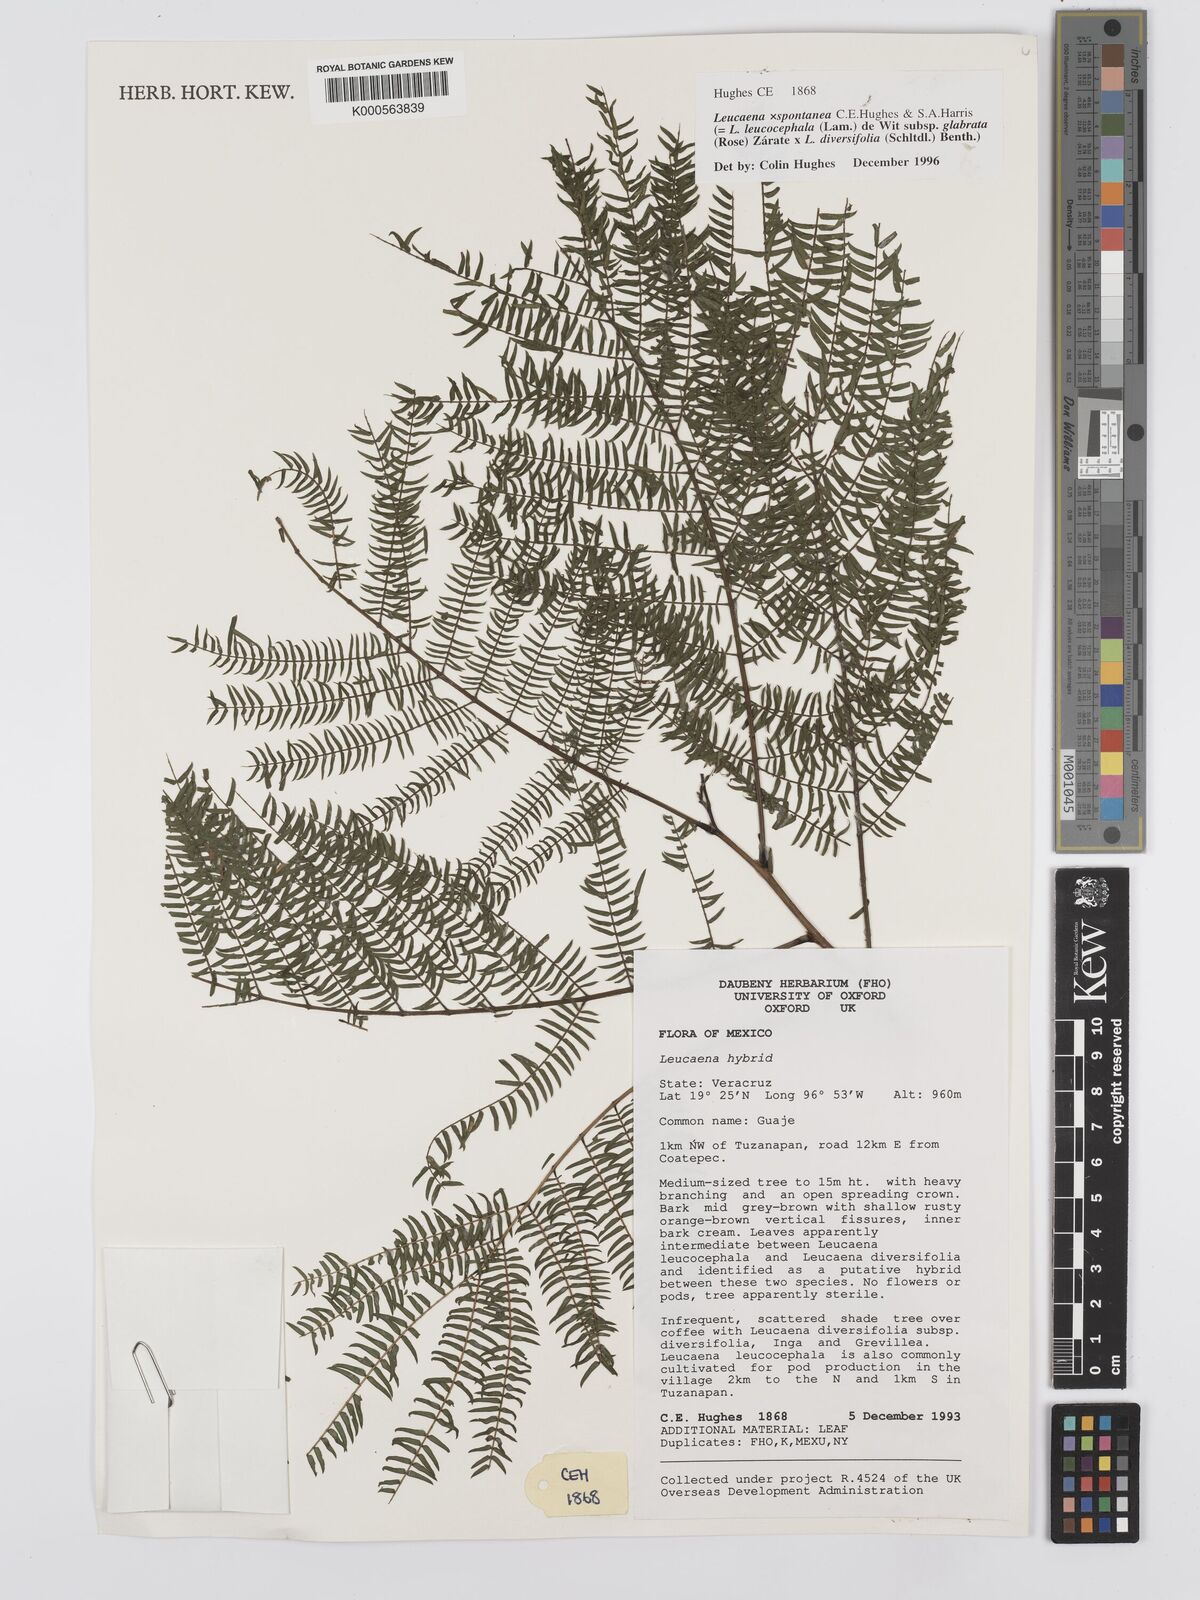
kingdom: Plantae
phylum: Tracheophyta
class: Magnoliopsida
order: Fabales
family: Fabaceae
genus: Leucaena
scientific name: Leucaena
